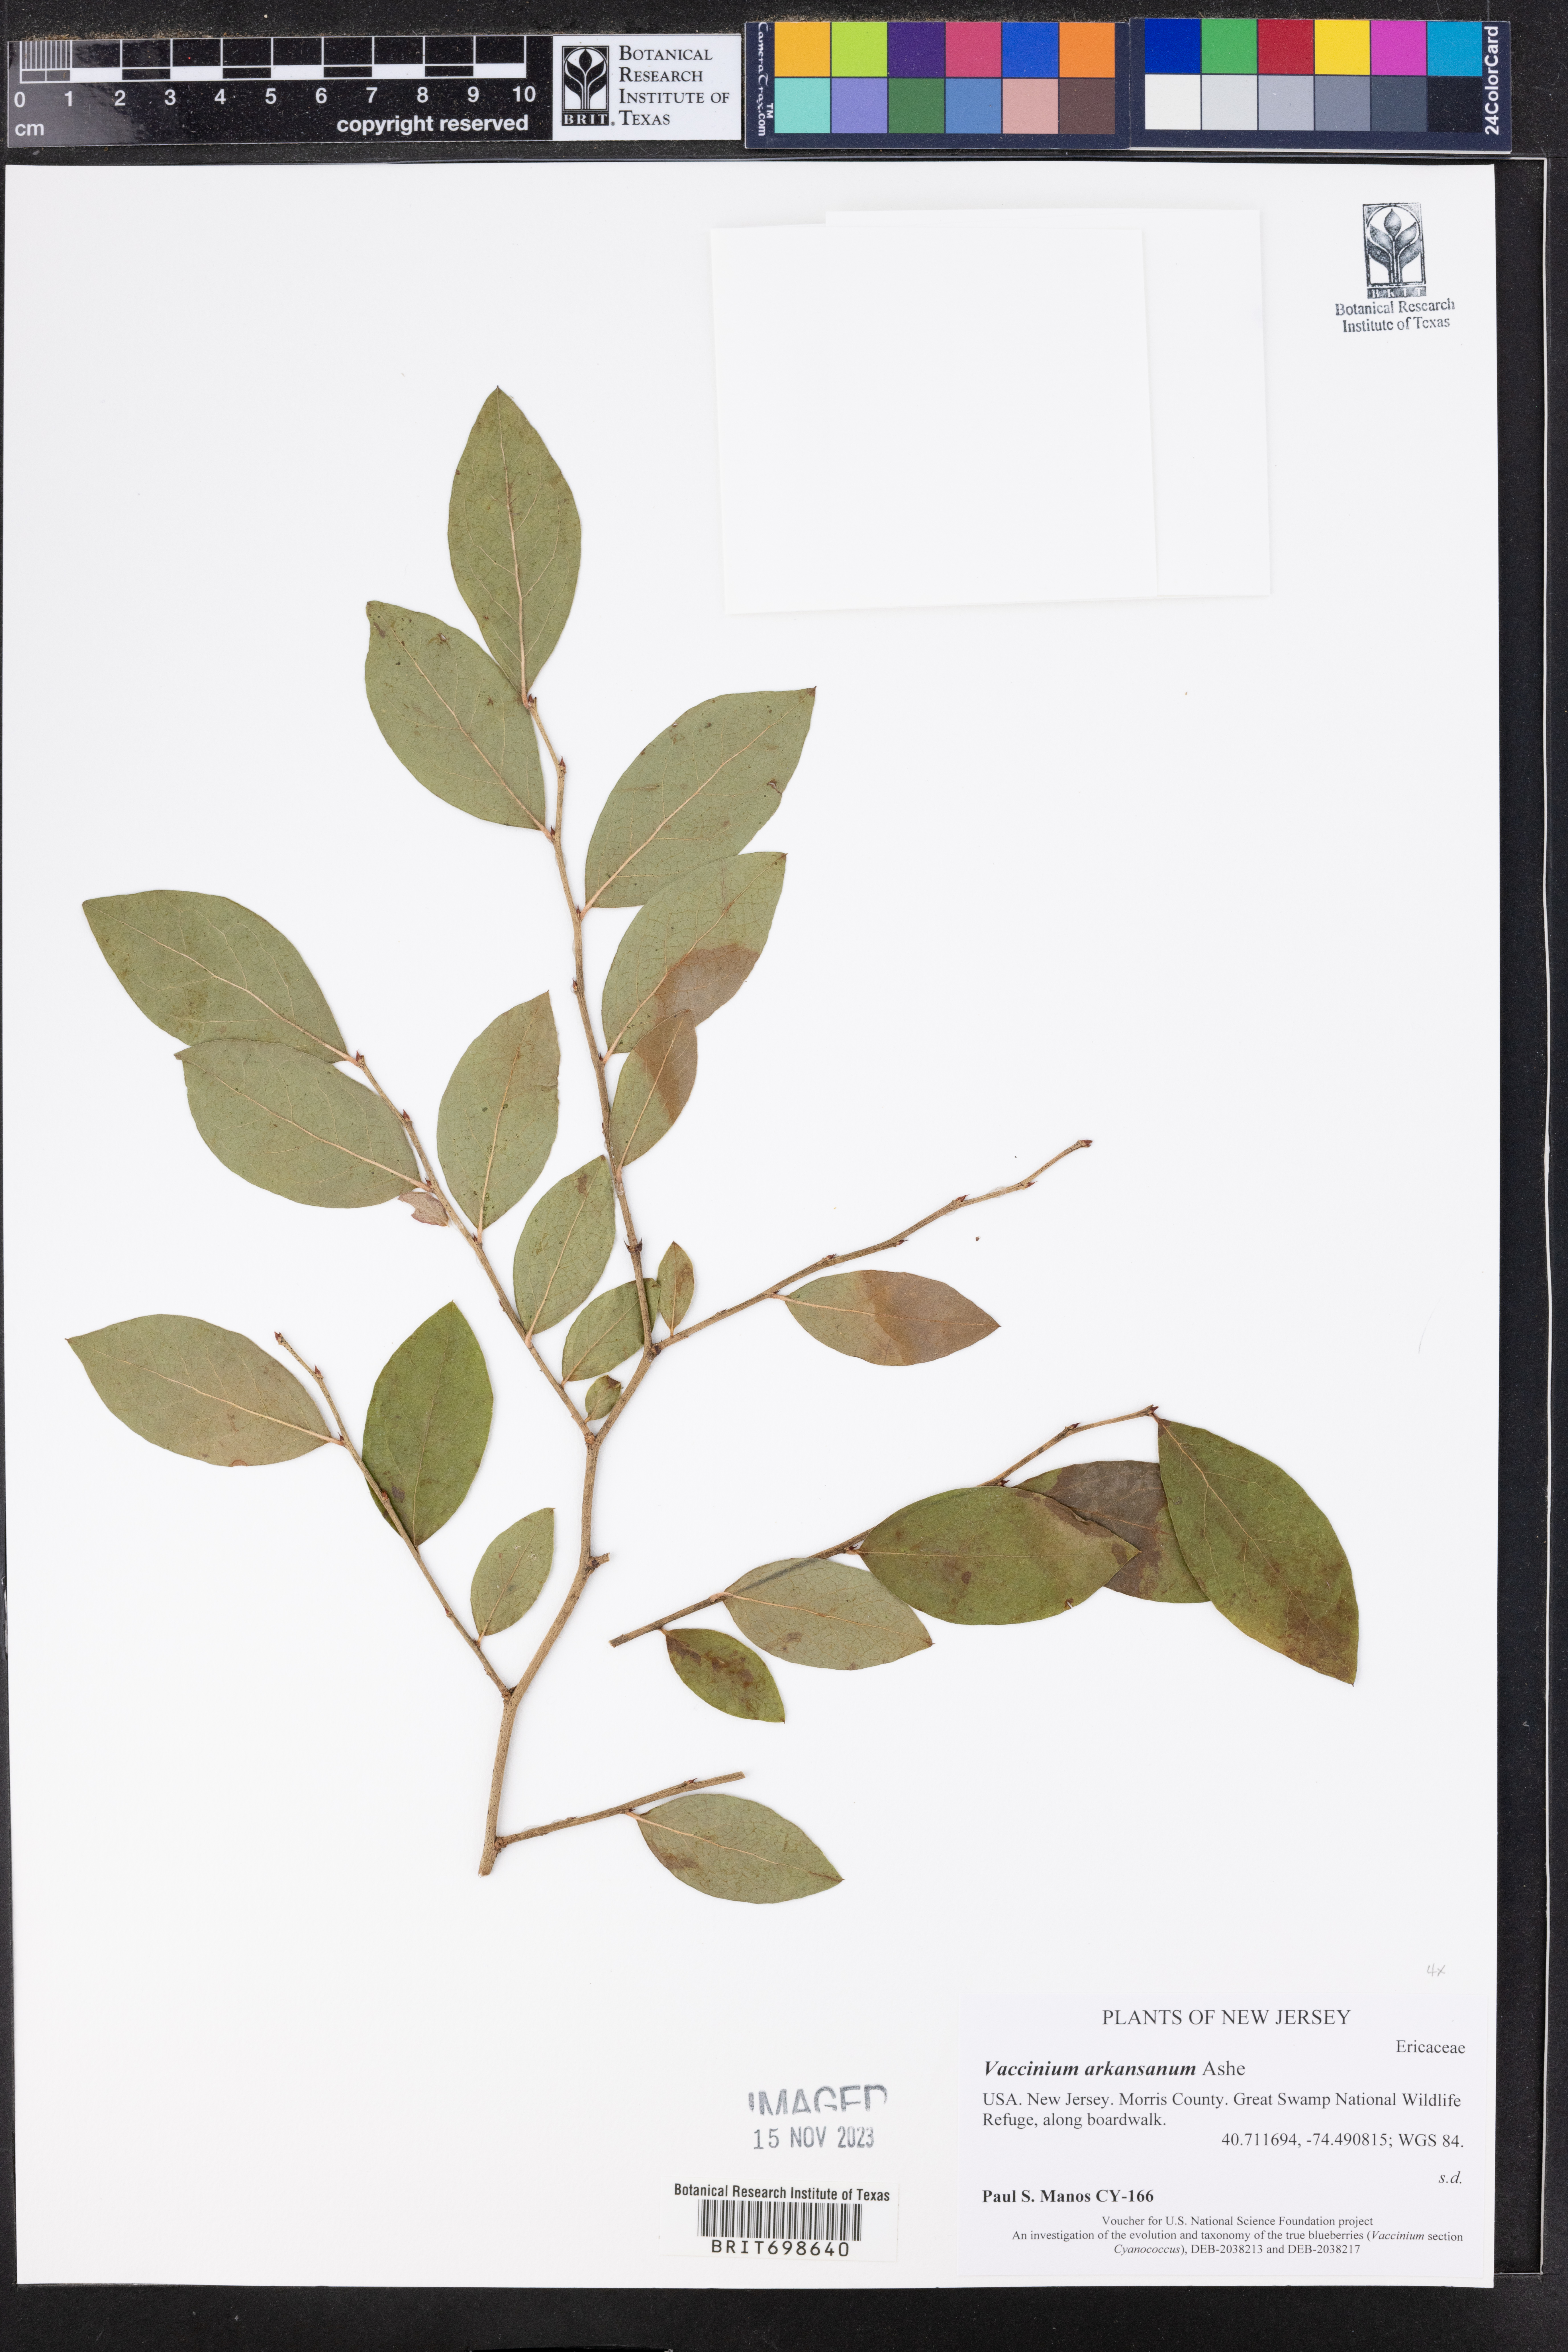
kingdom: Plantae
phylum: Tracheophyta
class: Magnoliopsida
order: Ericales
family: Ericaceae
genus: Vaccinium
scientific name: Vaccinium corymbosum
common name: Blueberry
